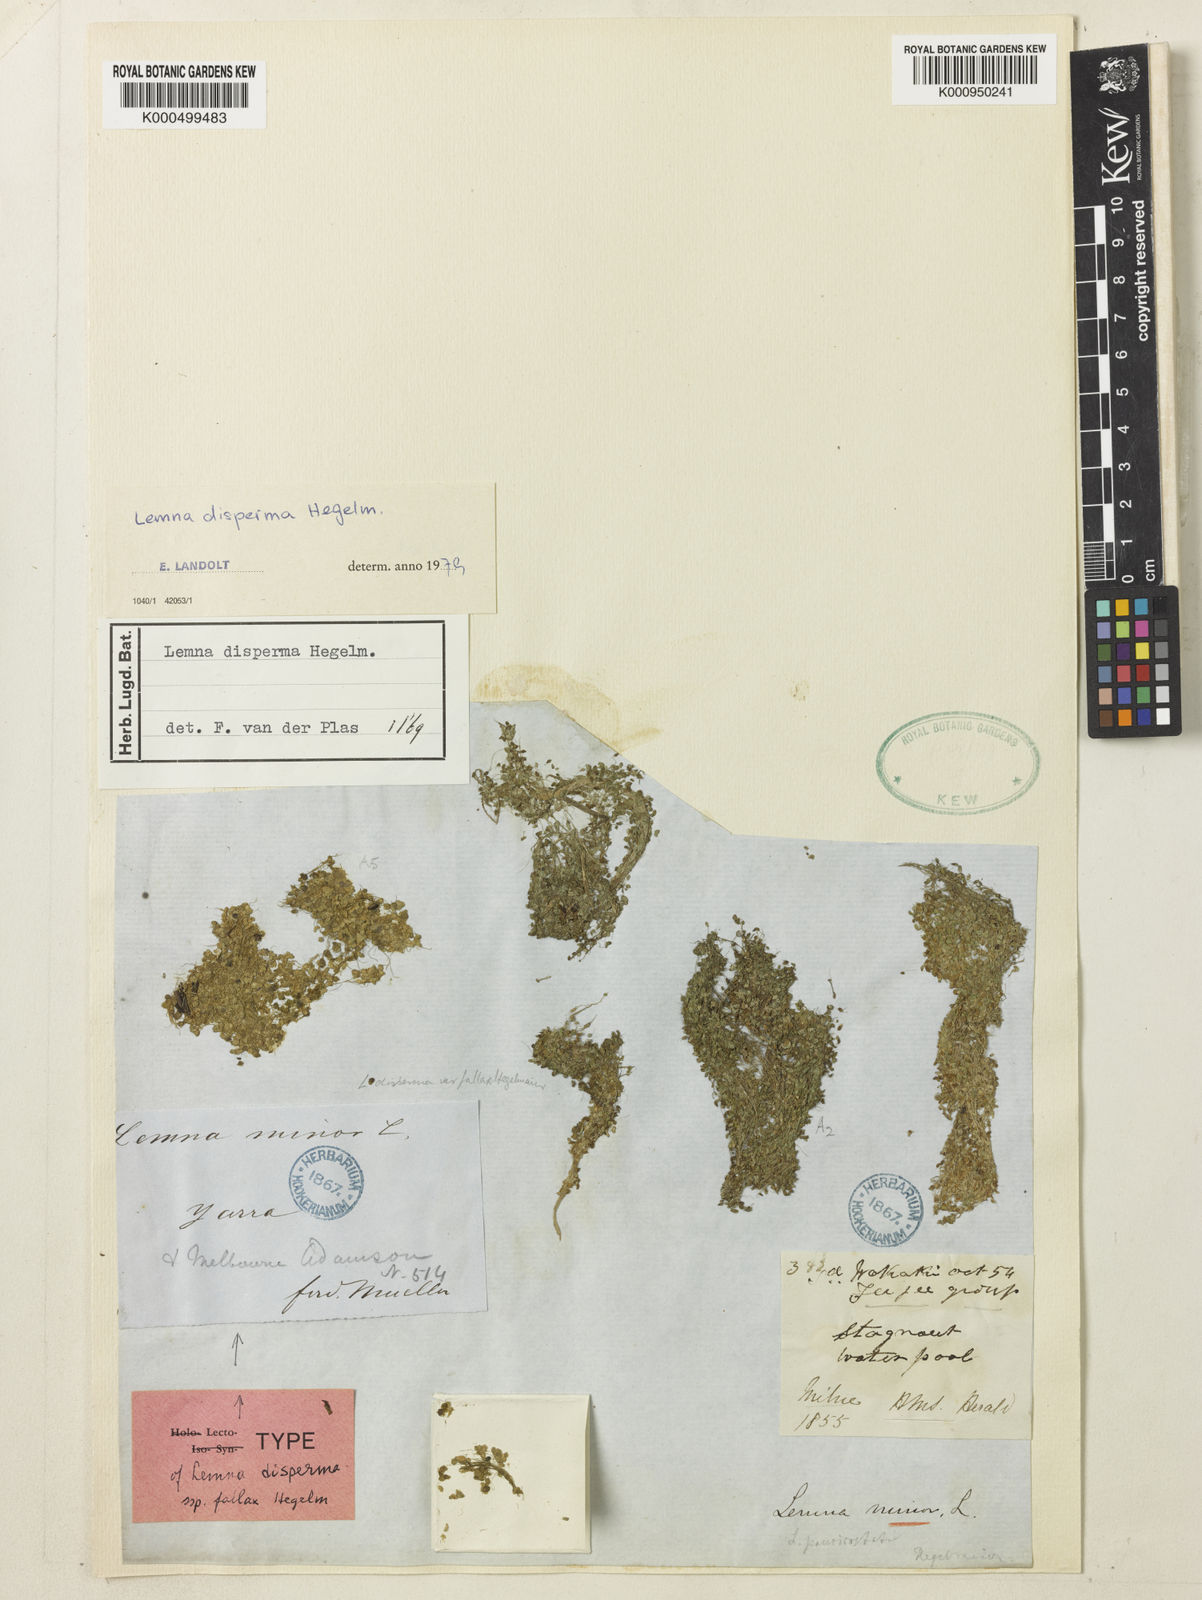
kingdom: Plantae
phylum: Tracheophyta
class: Liliopsida
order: Alismatales
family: Araceae
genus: Lemna
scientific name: Lemna disperma
